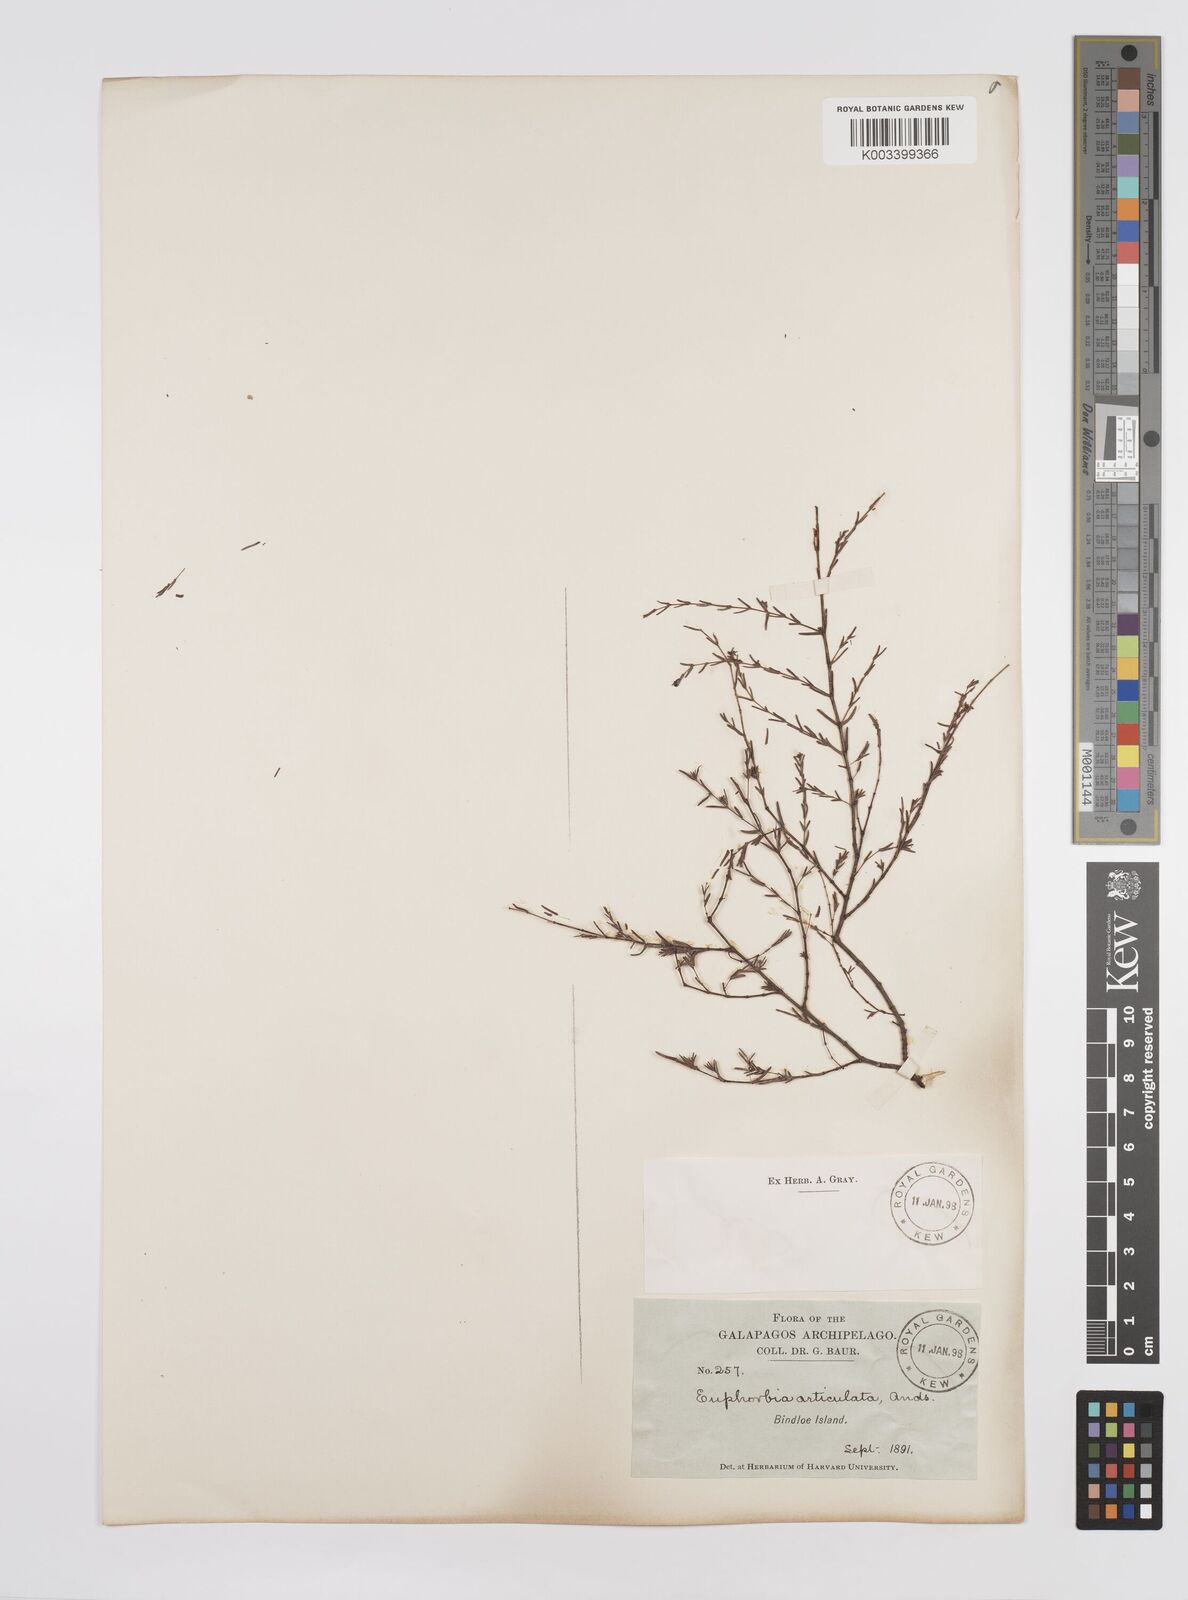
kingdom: Plantae
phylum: Tracheophyta
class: Magnoliopsida
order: Malpighiales
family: Euphorbiaceae
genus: Euphorbia
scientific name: Euphorbia punctulata
